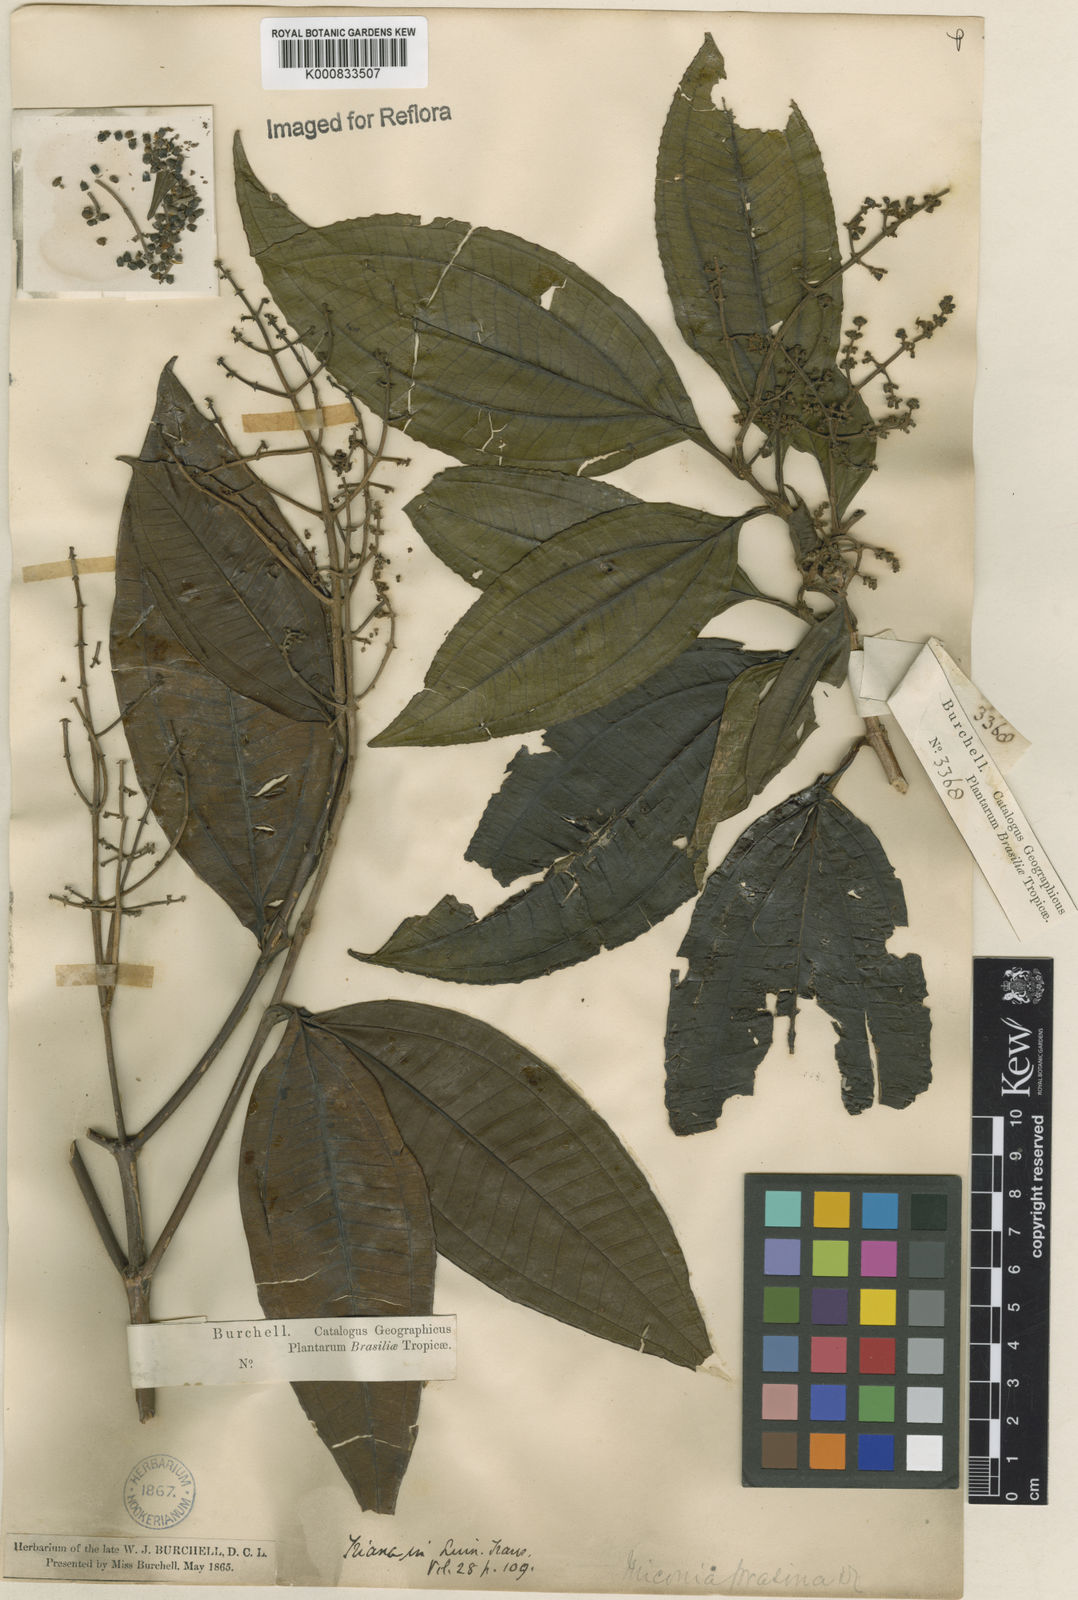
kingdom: Plantae
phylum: Tracheophyta
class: Magnoliopsida
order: Myrtales
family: Melastomataceae
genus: Miconia
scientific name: Miconia prasina
